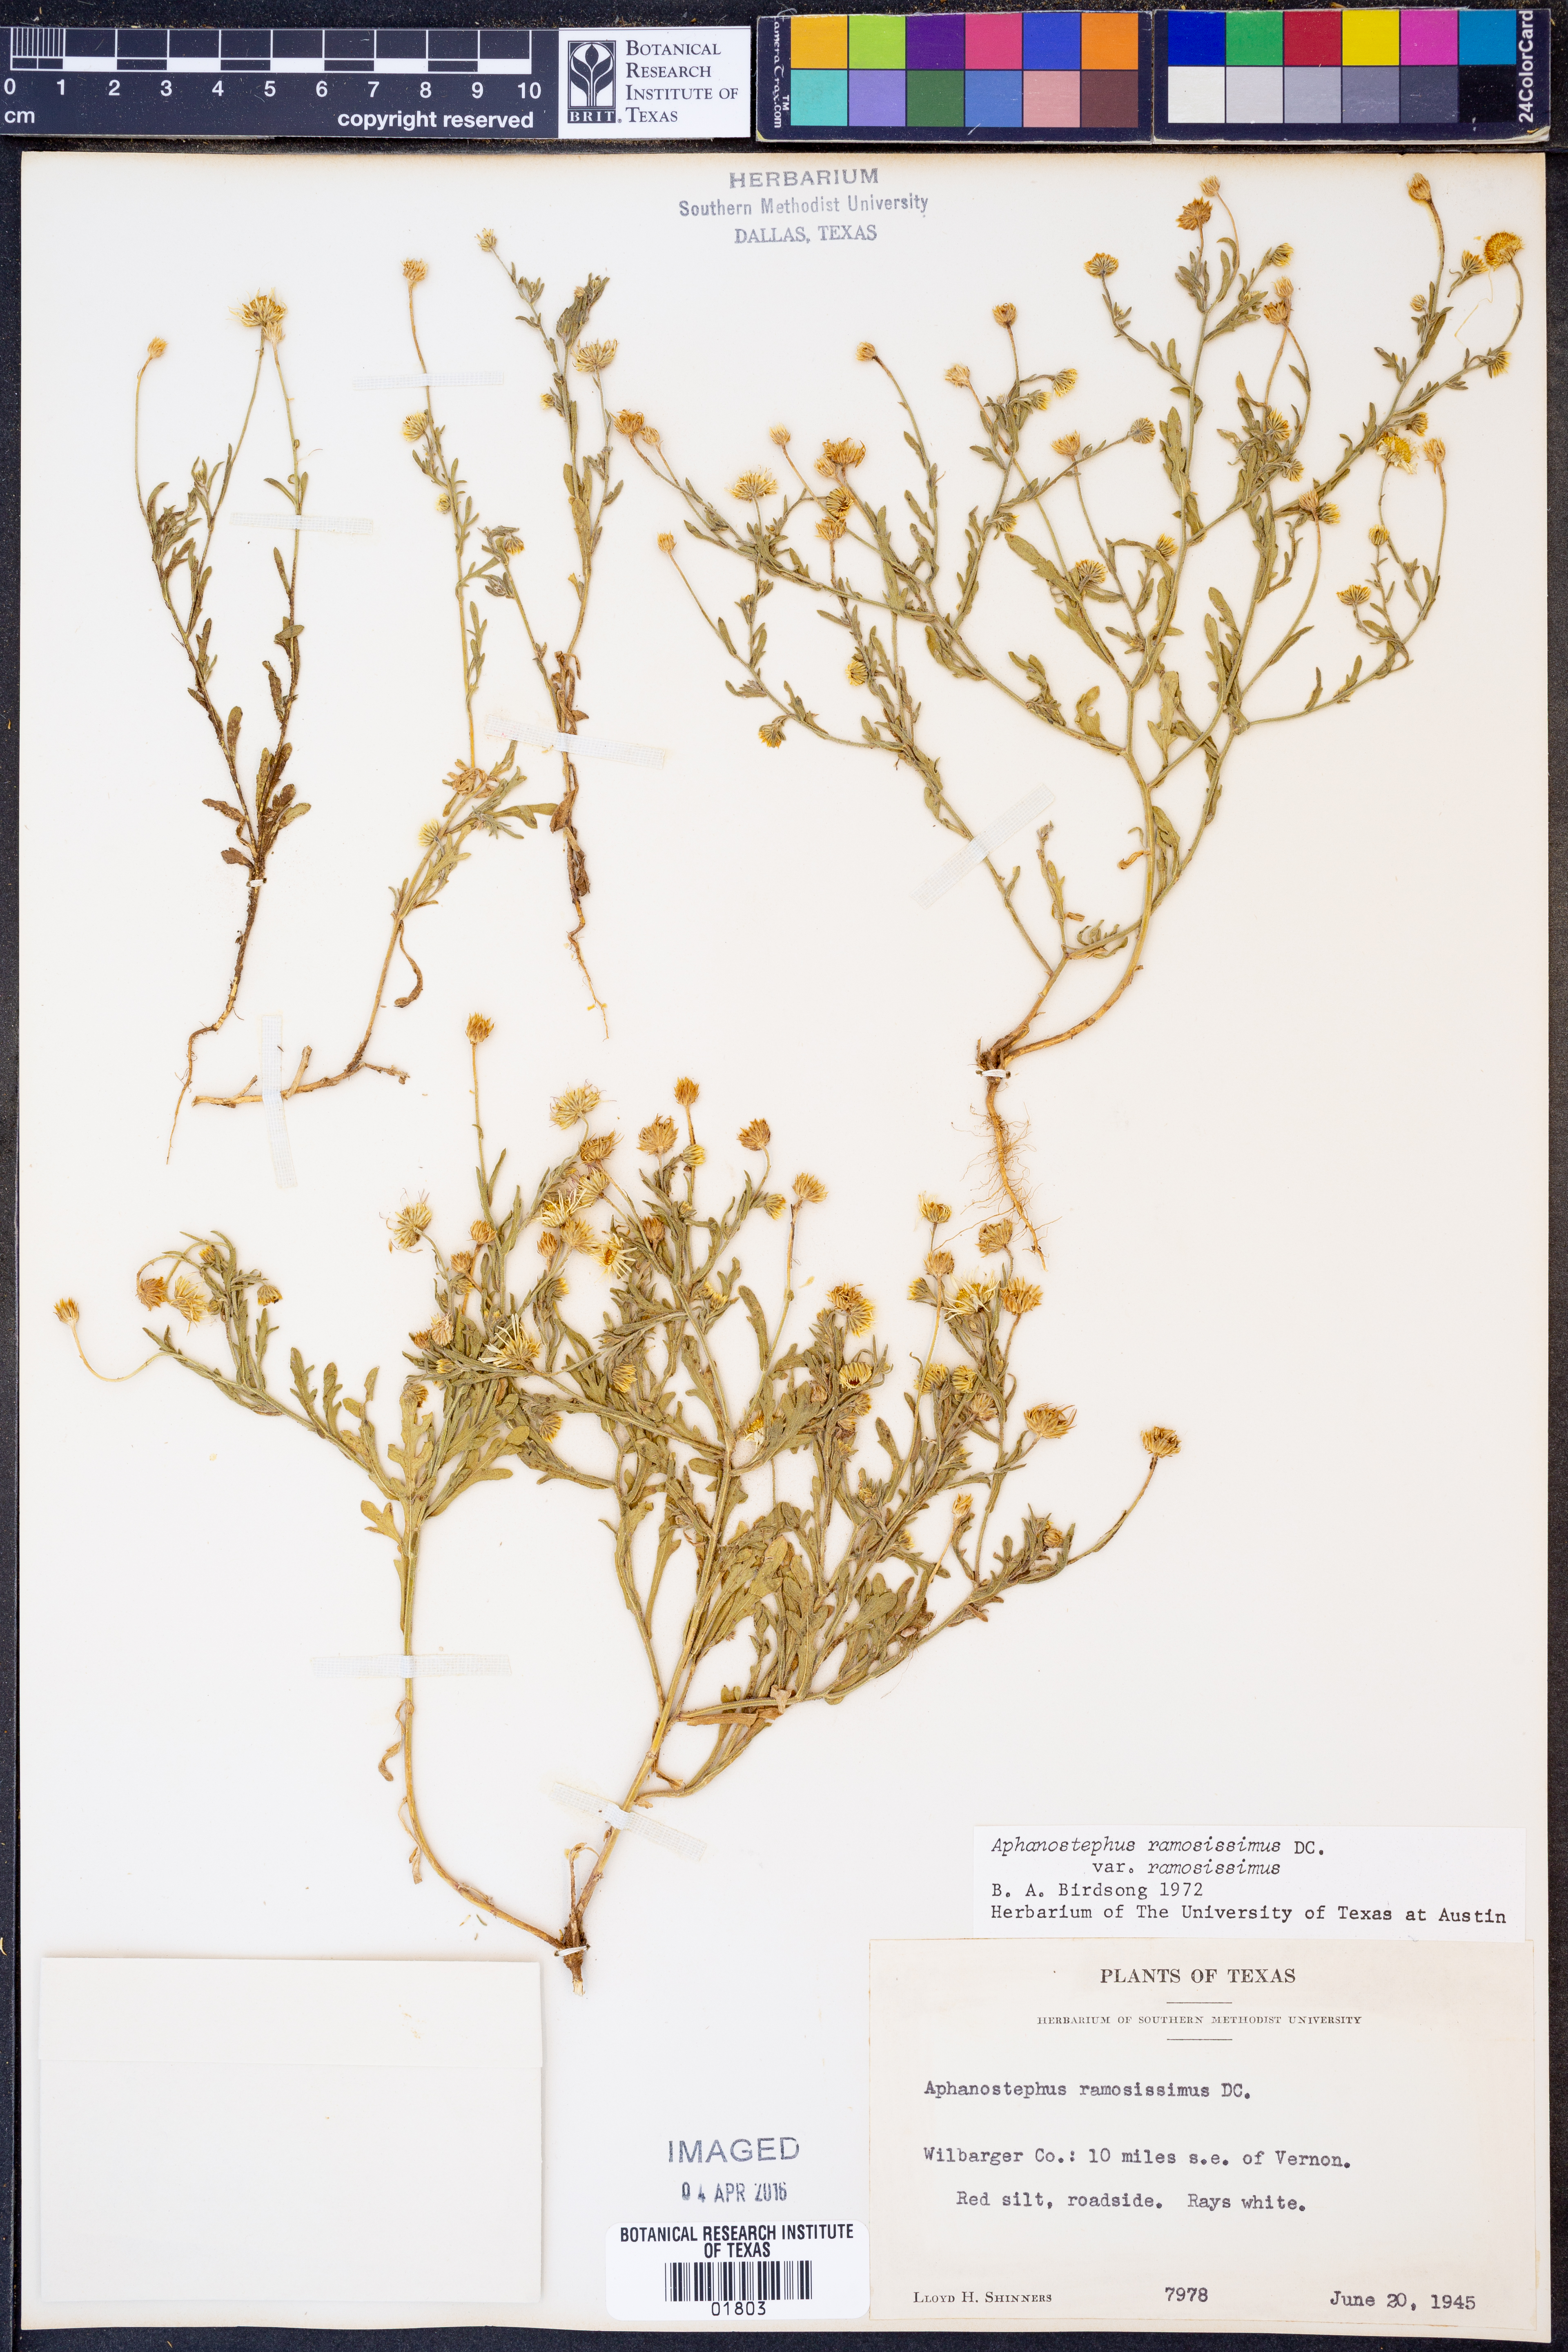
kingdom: Plantae
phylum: Tracheophyta
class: Magnoliopsida
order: Asterales
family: Asteraceae
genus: Aphanostephus
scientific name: Aphanostephus ramosissimus
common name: Plains lazy daisy
